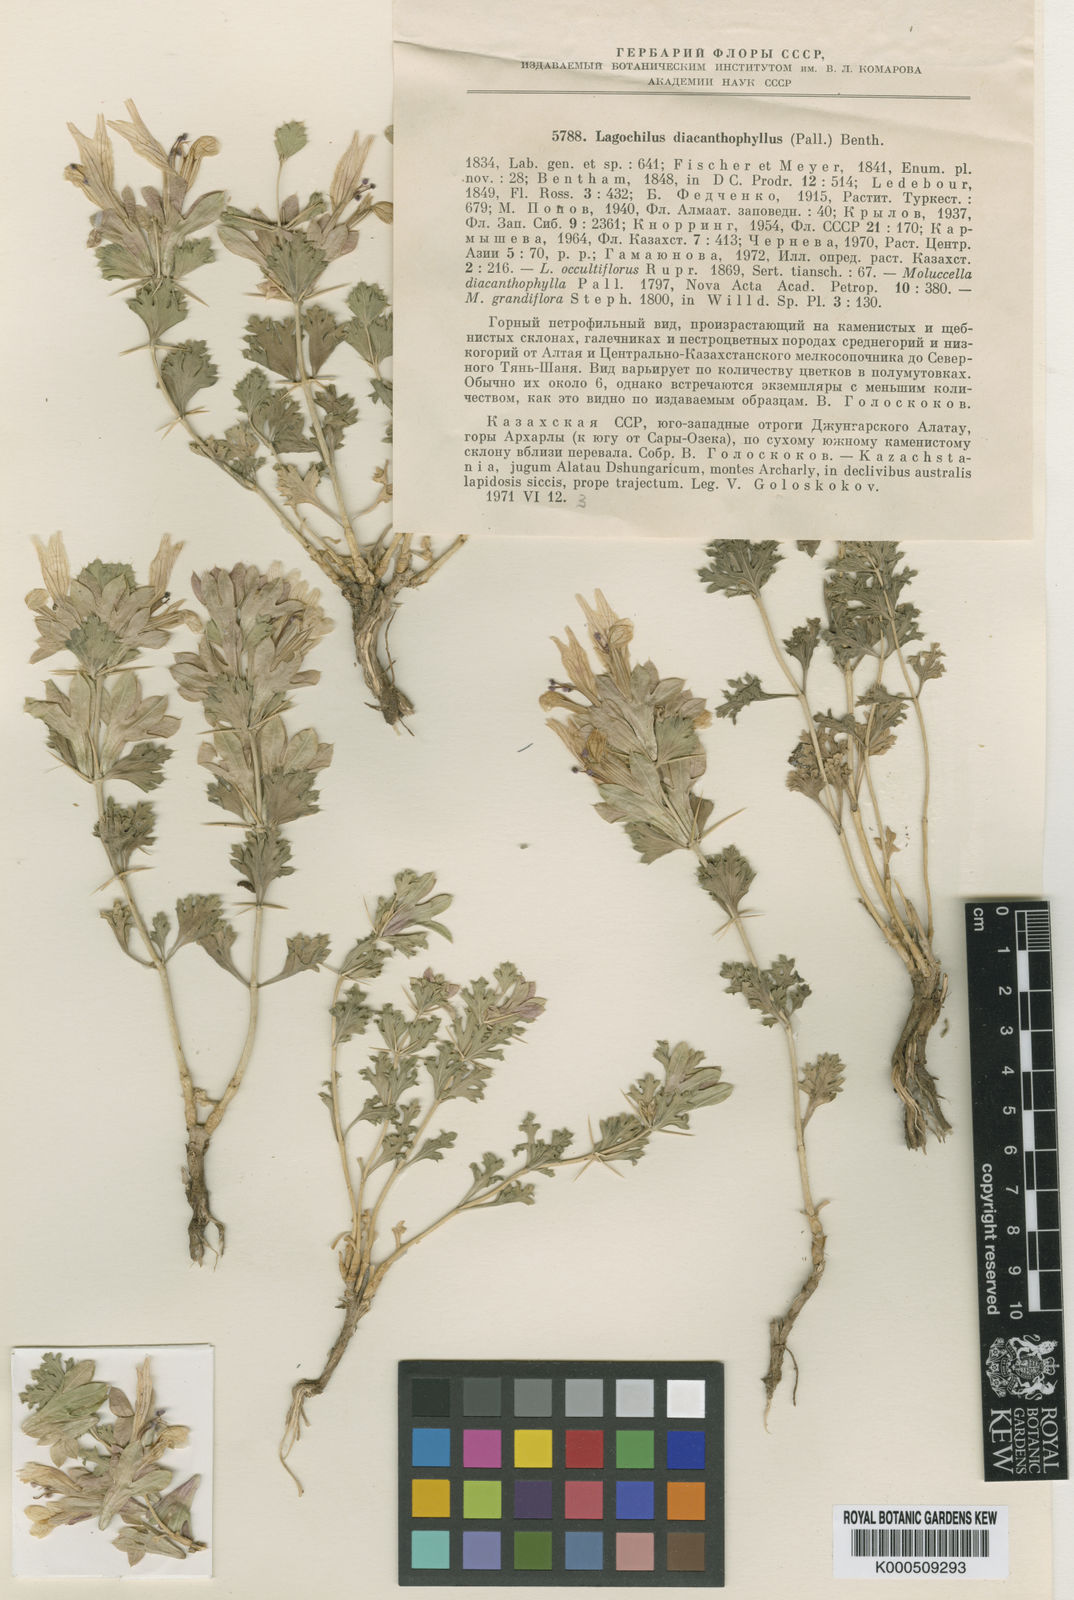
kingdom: Plantae
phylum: Tracheophyta
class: Magnoliopsida
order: Lamiales
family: Lamiaceae
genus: Lagochilus
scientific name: Lagochilus diacanthophyllus
